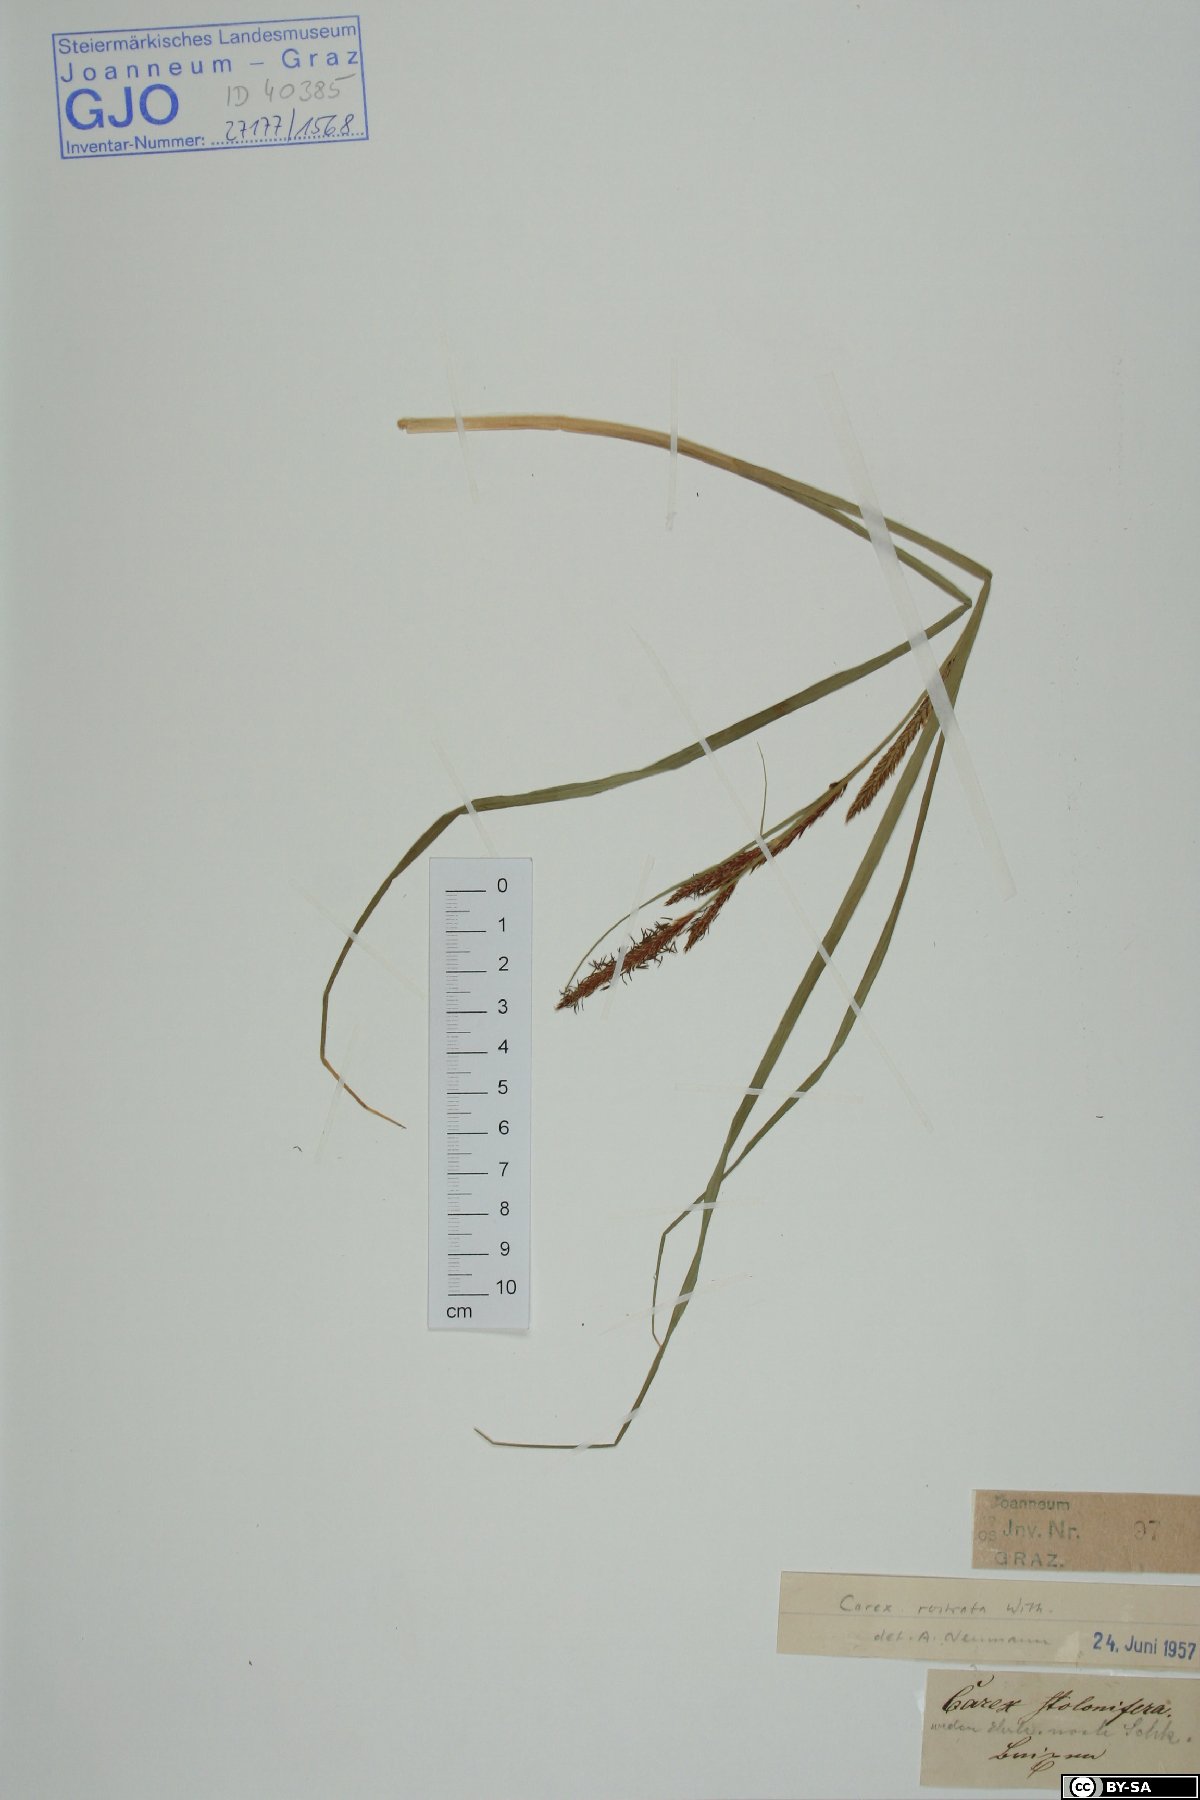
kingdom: Plantae
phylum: Tracheophyta
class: Liliopsida
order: Poales
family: Cyperaceae
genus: Carex
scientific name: Carex rostrata
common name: Bottle sedge
